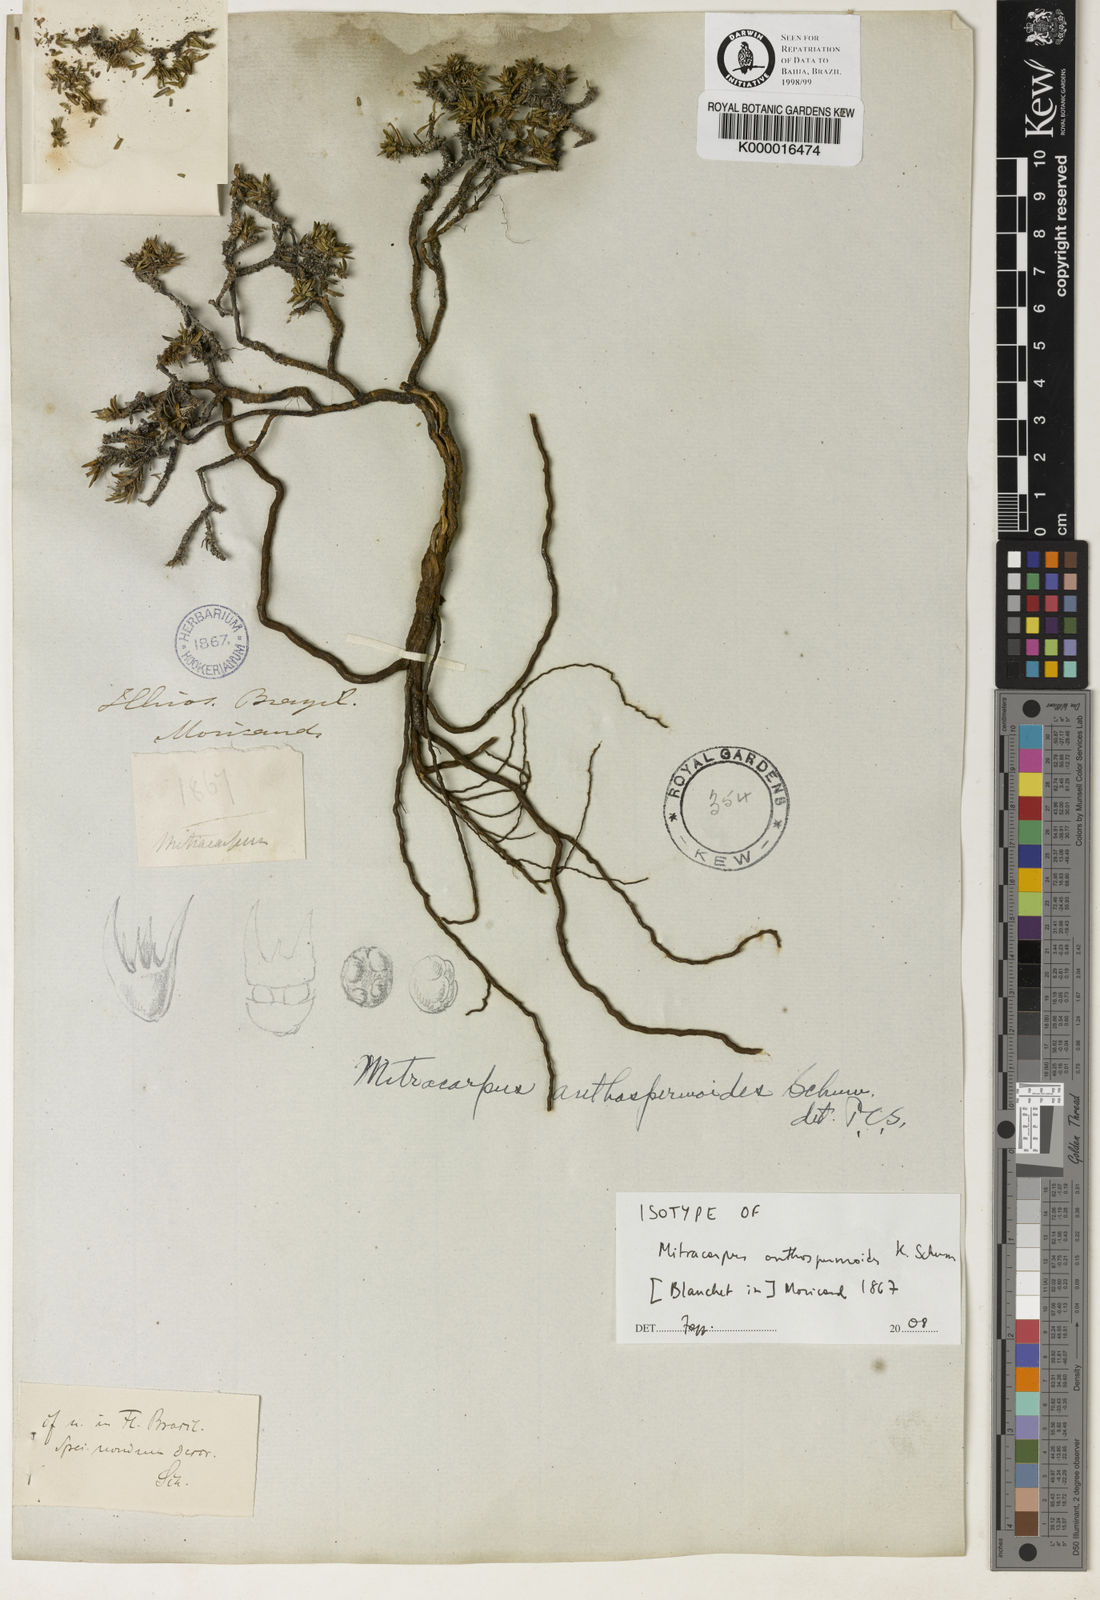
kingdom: Plantae
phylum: Tracheophyta
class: Magnoliopsida
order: Gentianales
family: Rubiaceae
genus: Mitracarpus
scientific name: Mitracarpus anthospermoides
